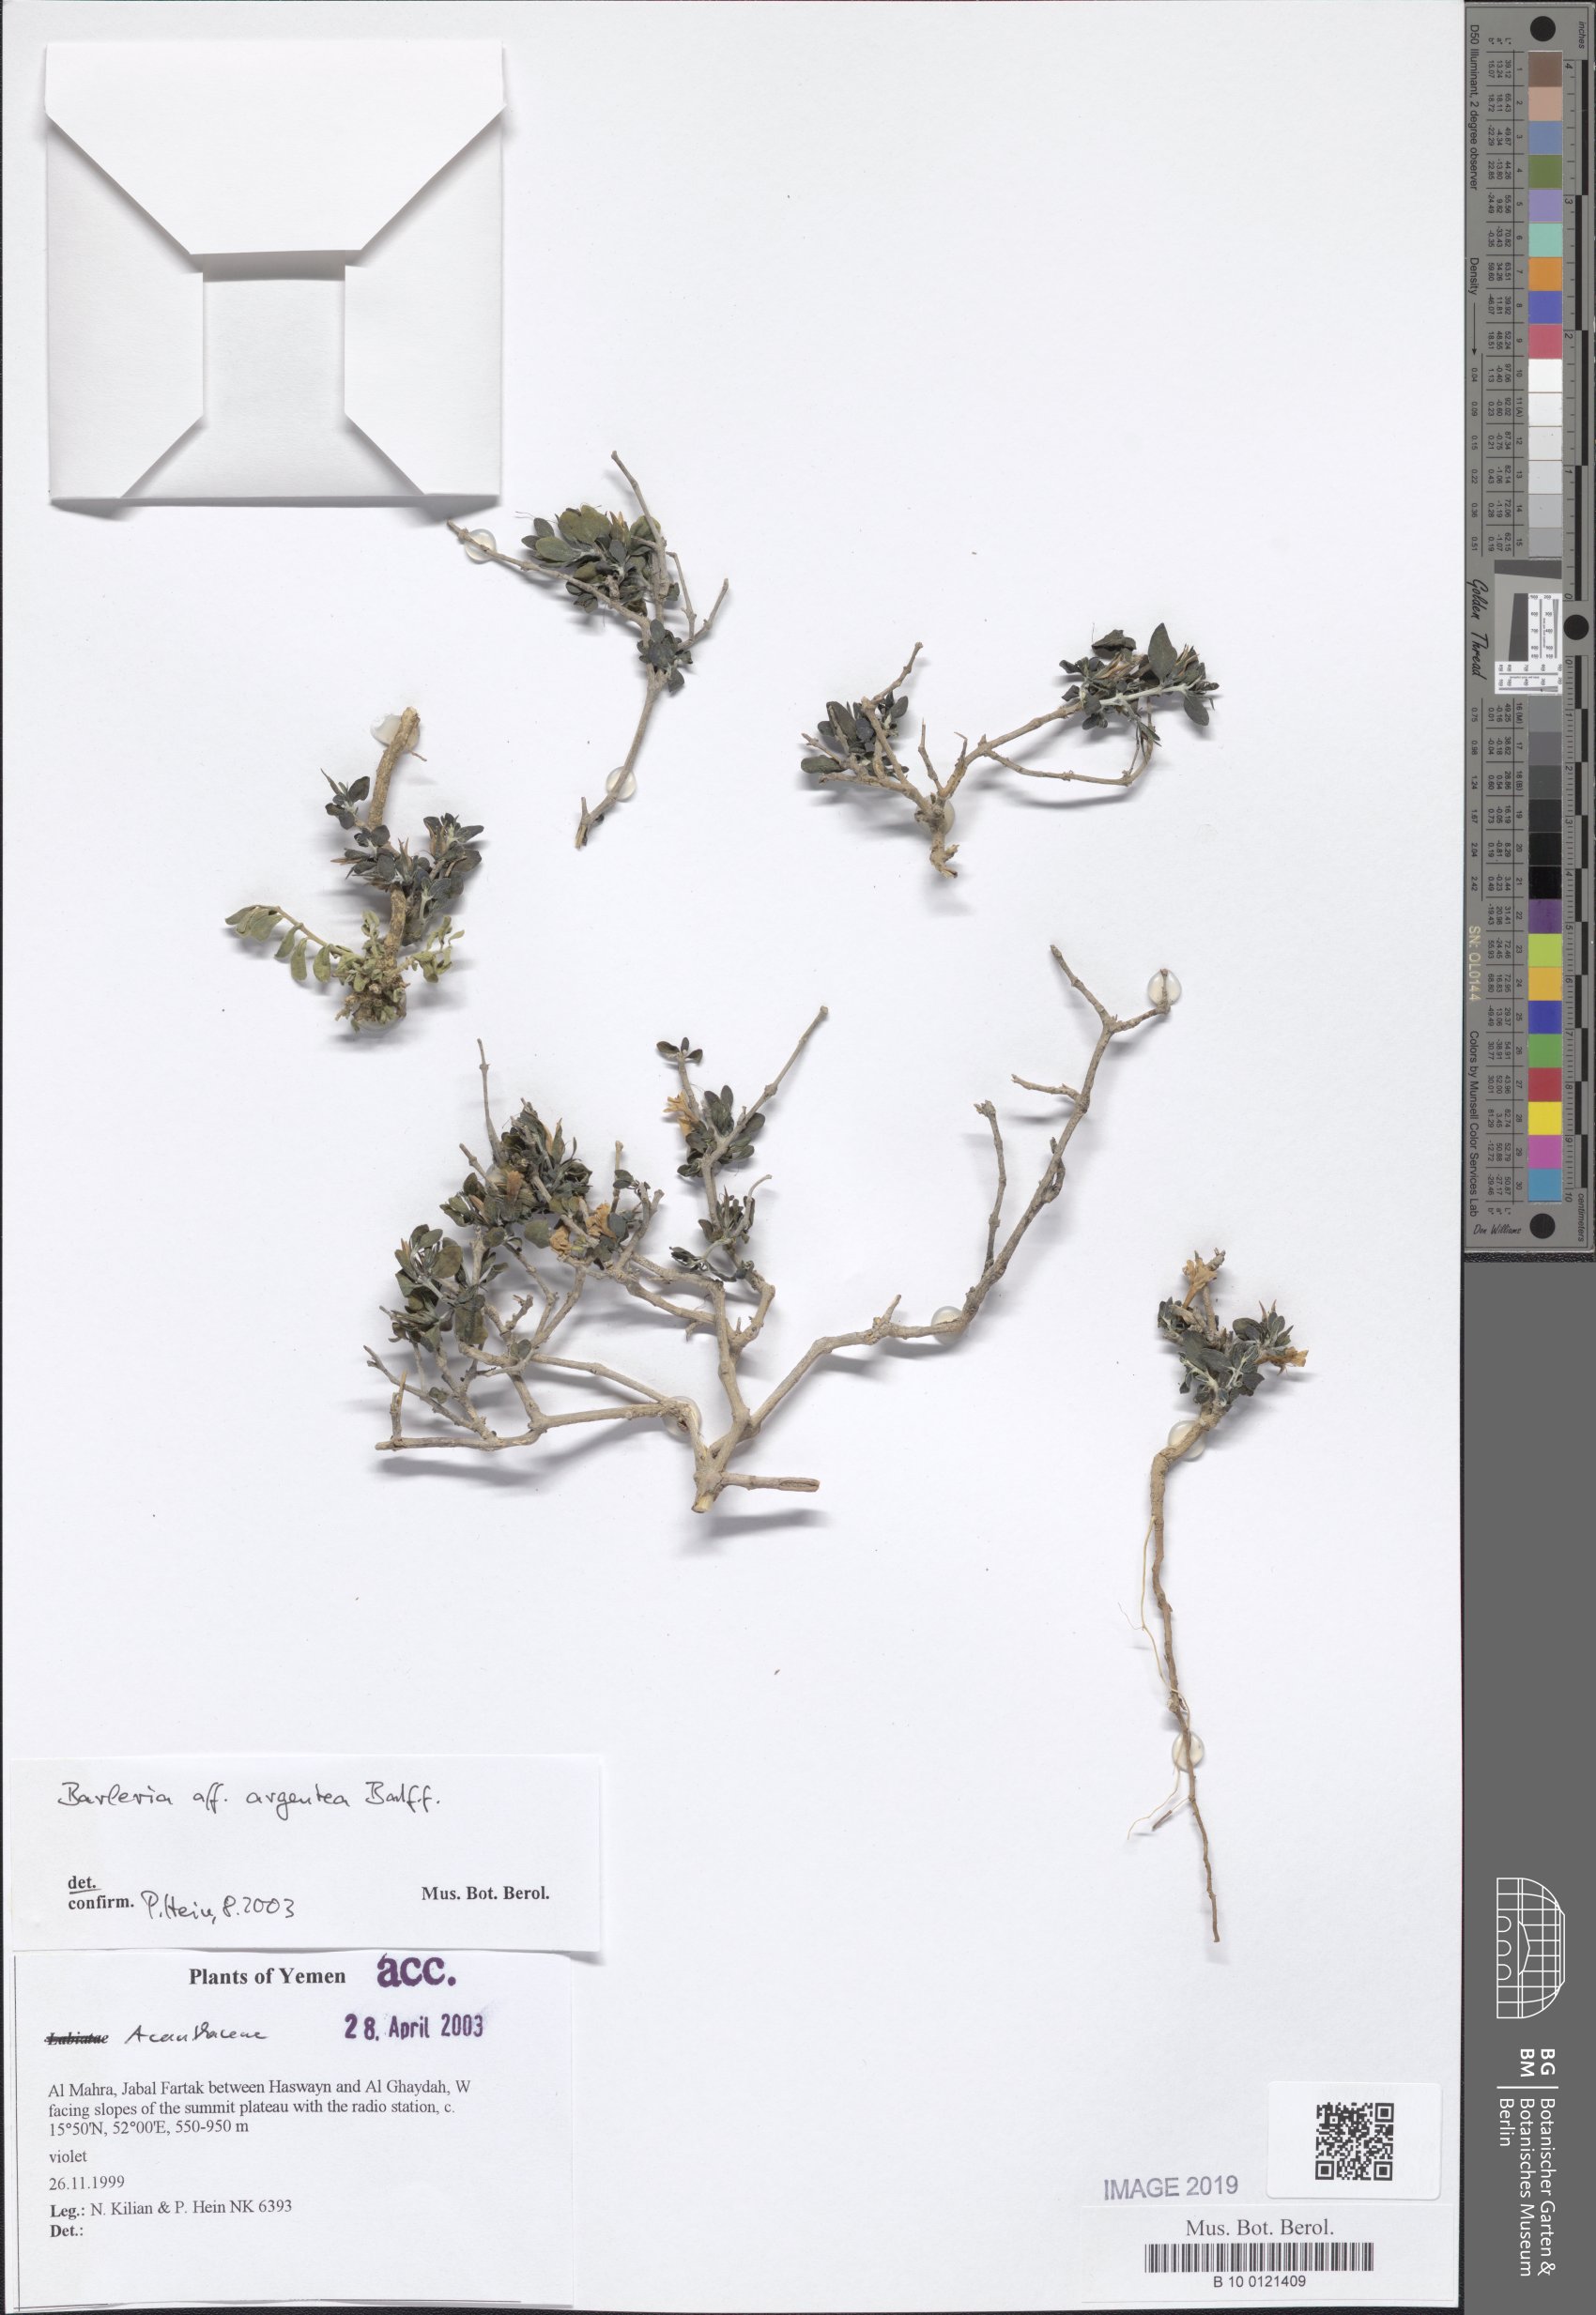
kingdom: Plantae
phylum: Tracheophyta
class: Magnoliopsida
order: Lamiales
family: Acanthaceae
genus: Barleria
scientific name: Barleria argentea
